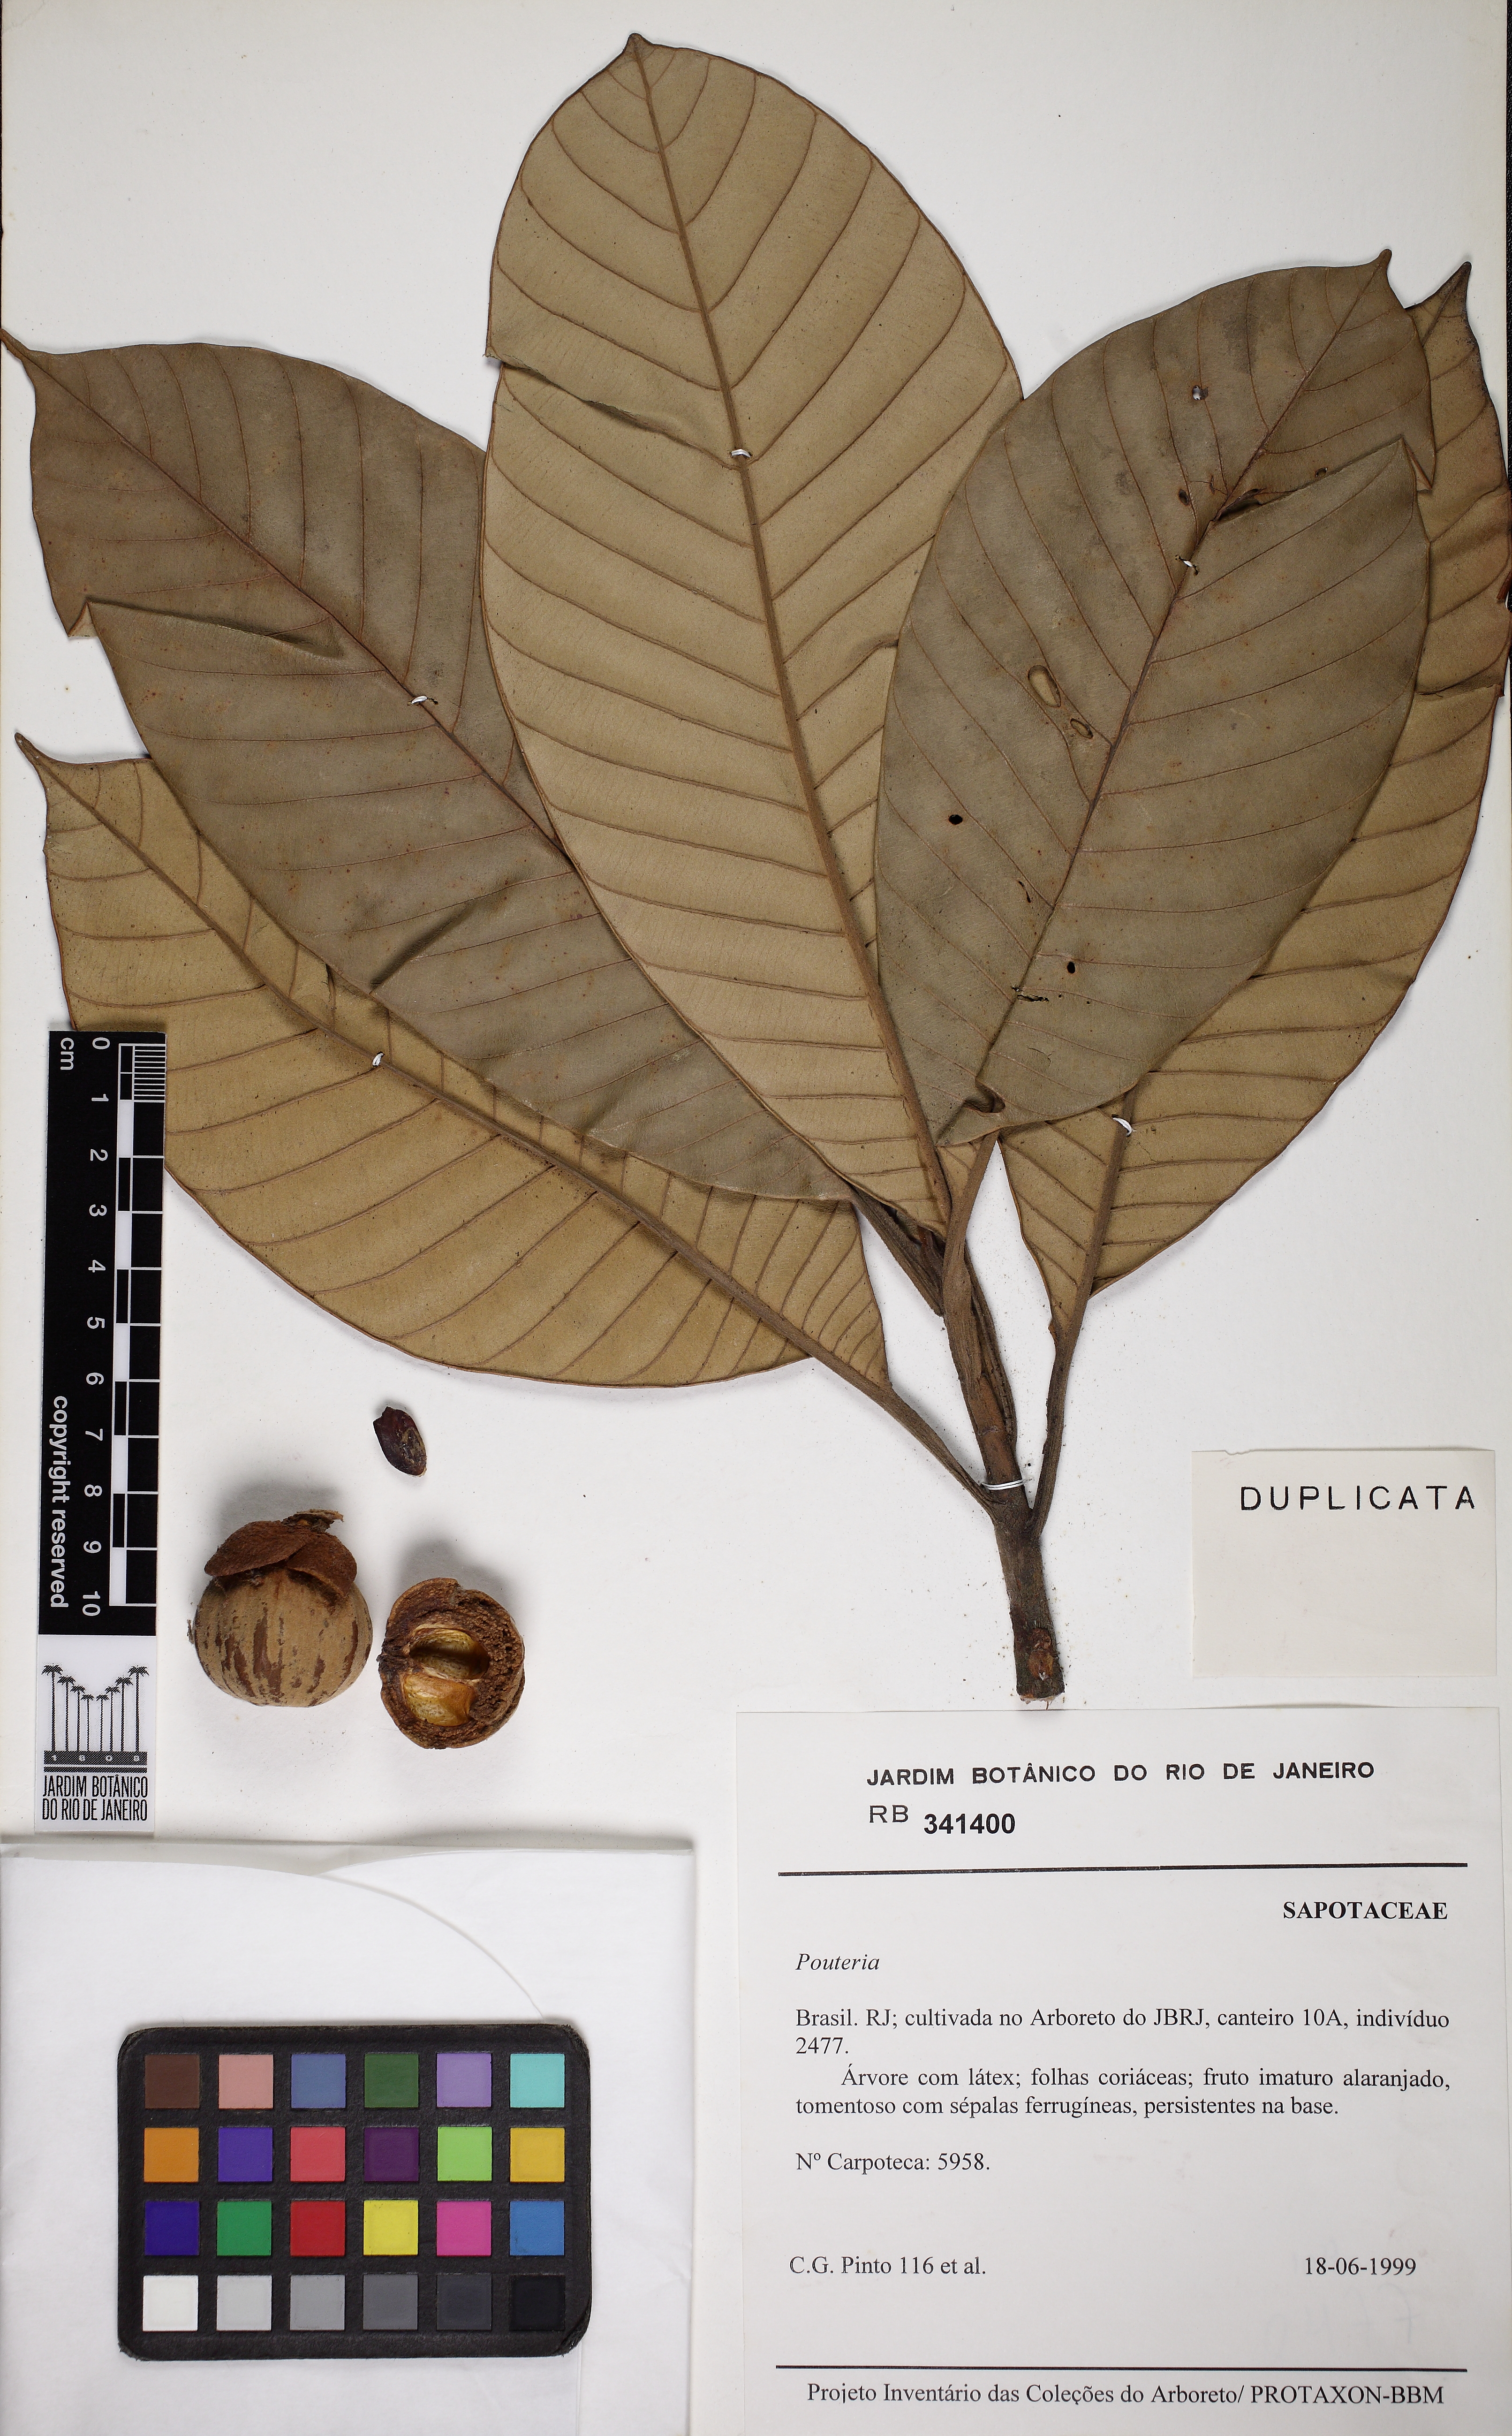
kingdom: Plantae
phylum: Tracheophyta
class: Magnoliopsida
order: Ericales
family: Sapotaceae
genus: Chrysophyllum
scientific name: Chrysophyllum sanguinolentum
